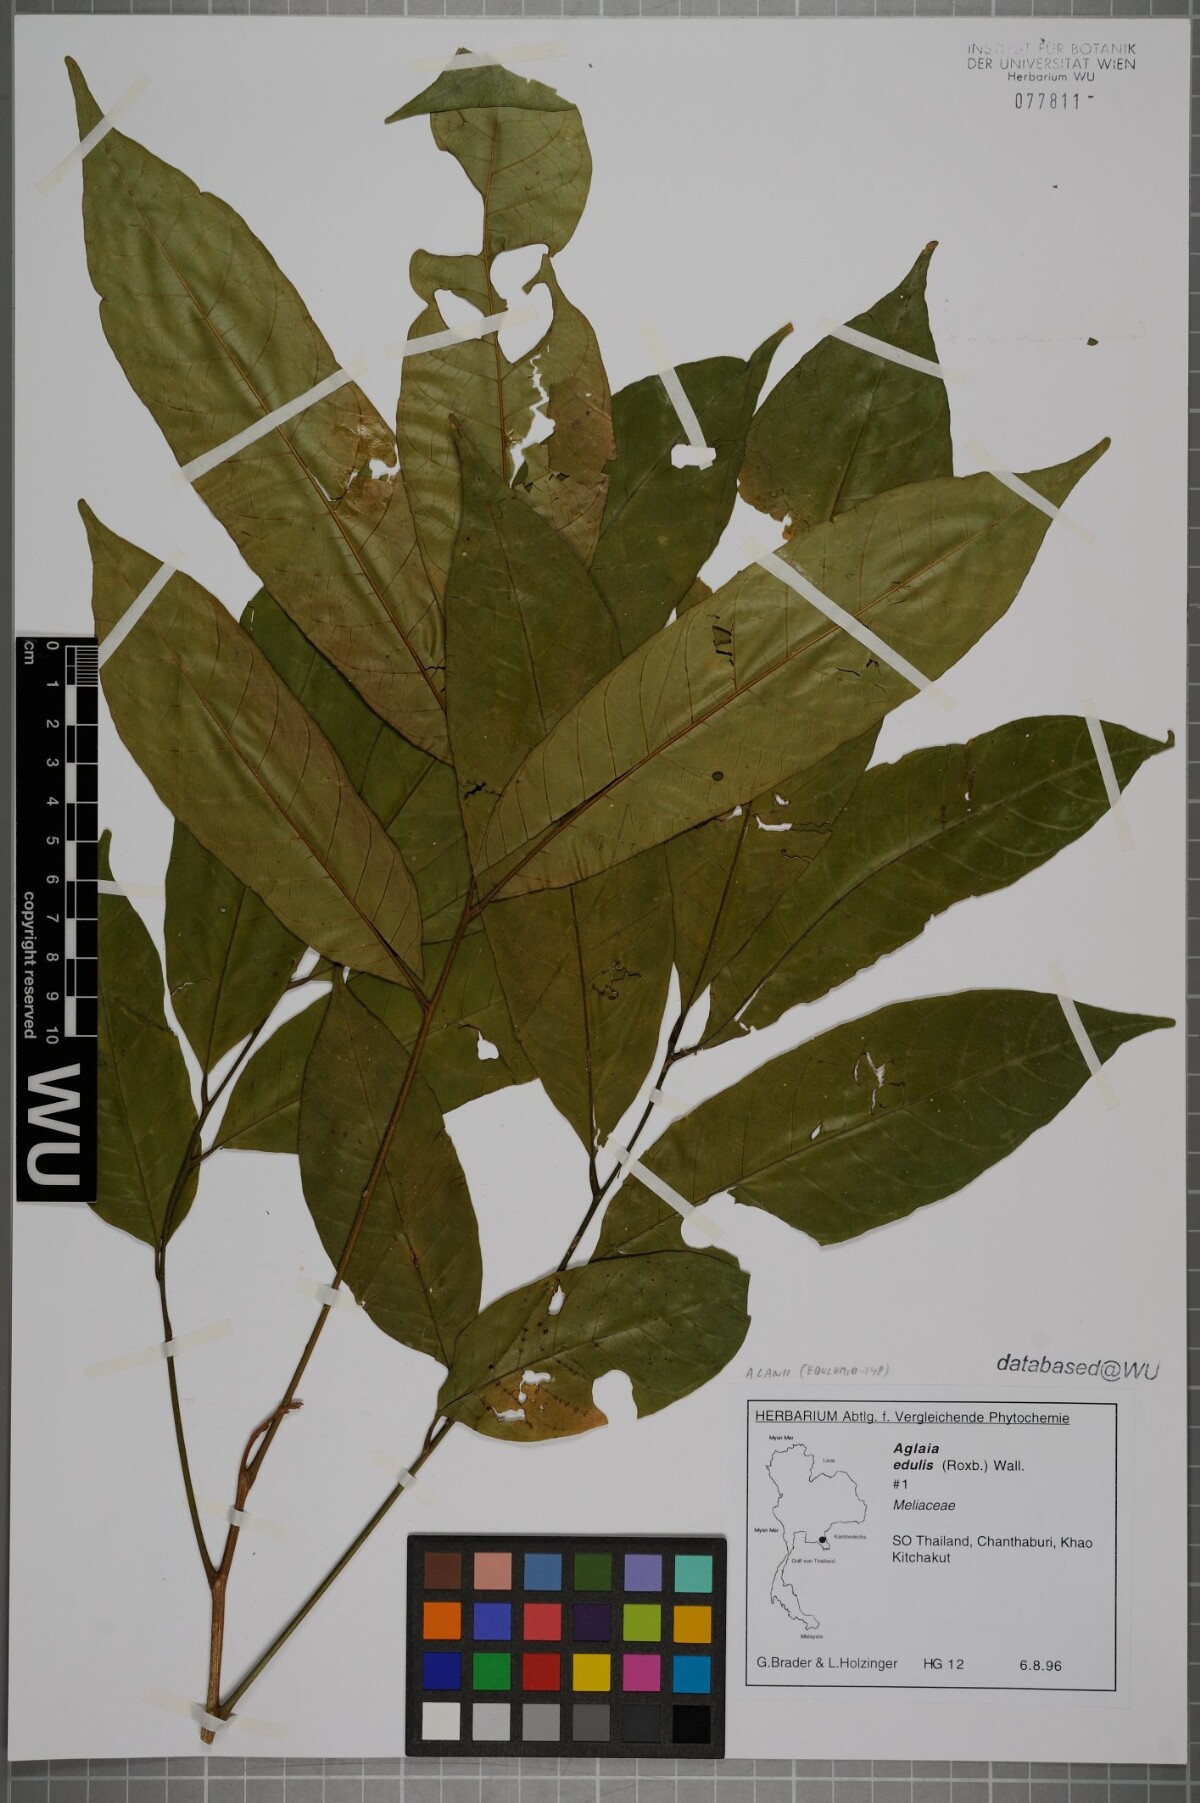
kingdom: Plantae
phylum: Tracheophyta
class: Magnoliopsida
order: Sapindales
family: Meliaceae
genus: Aglaia
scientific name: Aglaia edulis
